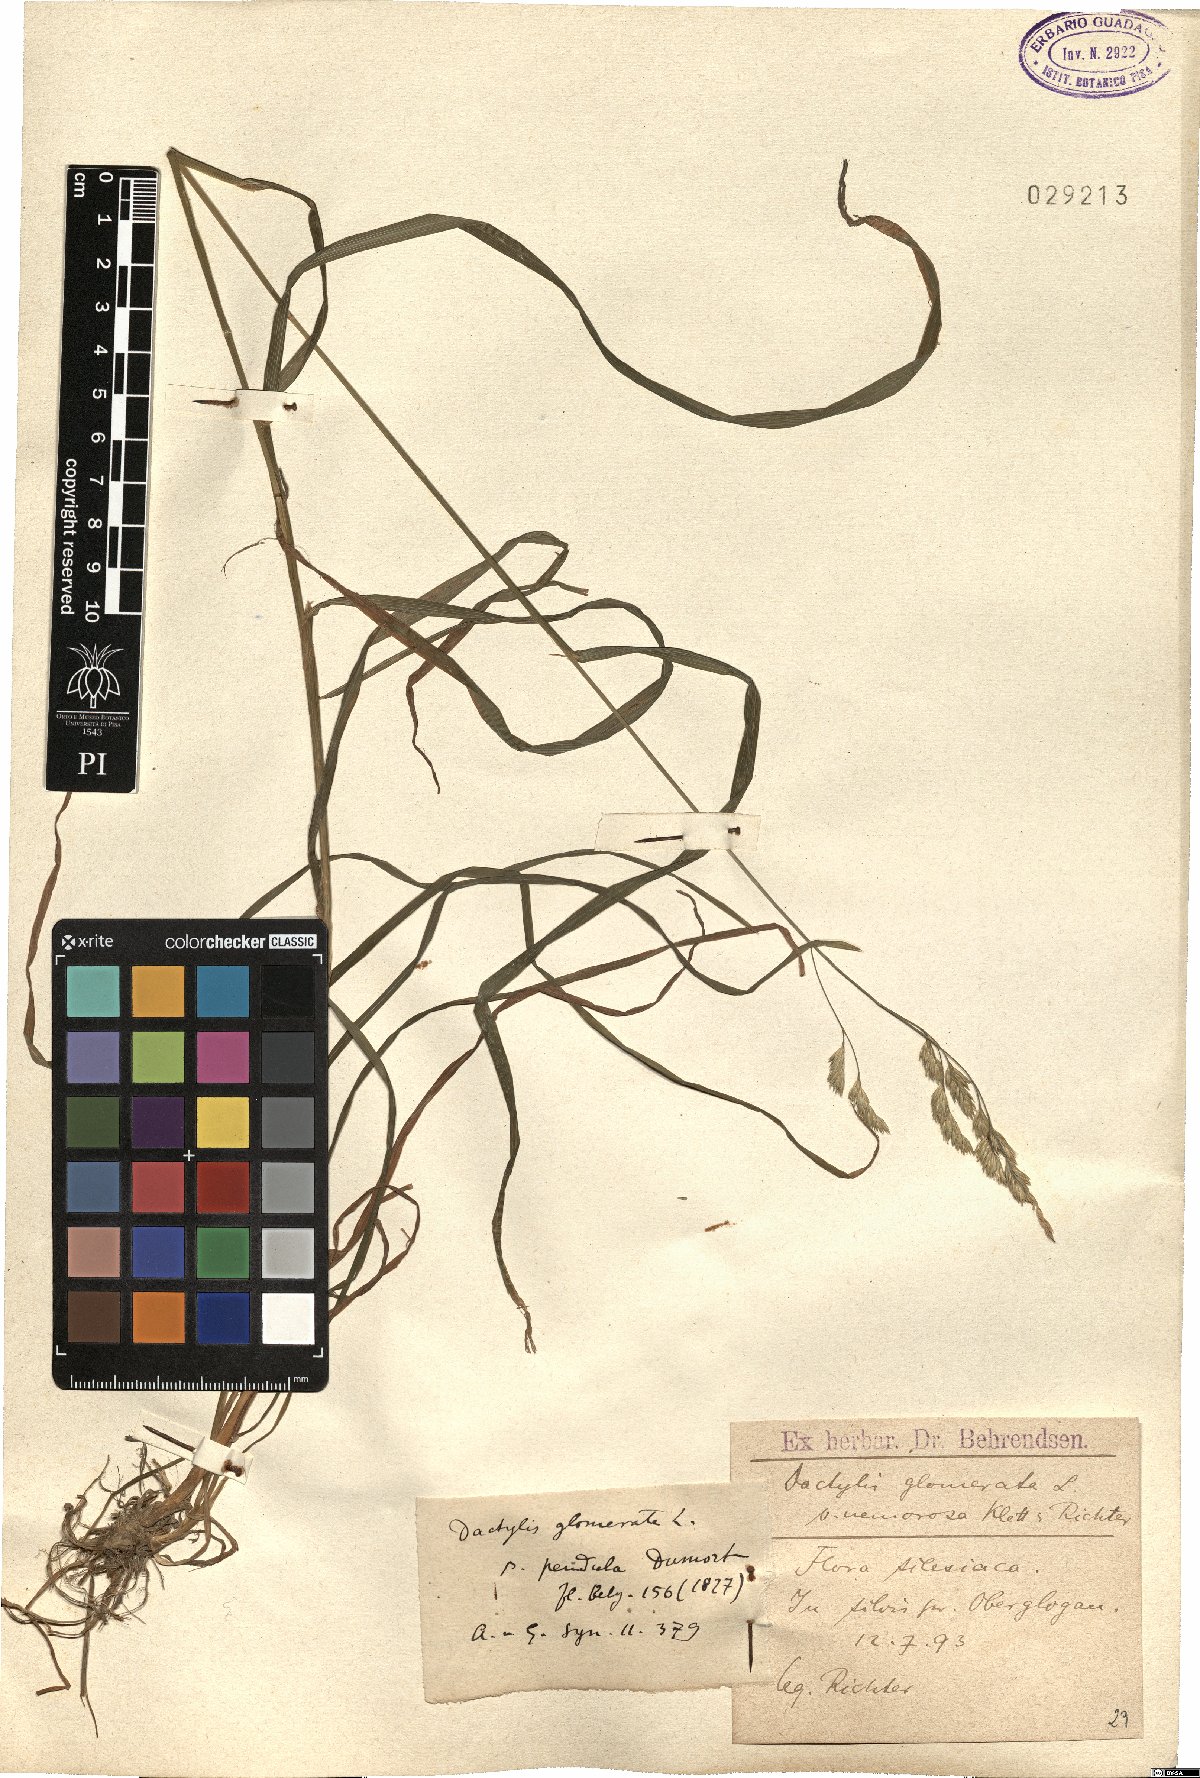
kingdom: Plantae
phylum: Tracheophyta
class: Liliopsida
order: Poales
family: Poaceae
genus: Dactylis
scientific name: Dactylis glomerata
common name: Orchardgrass
